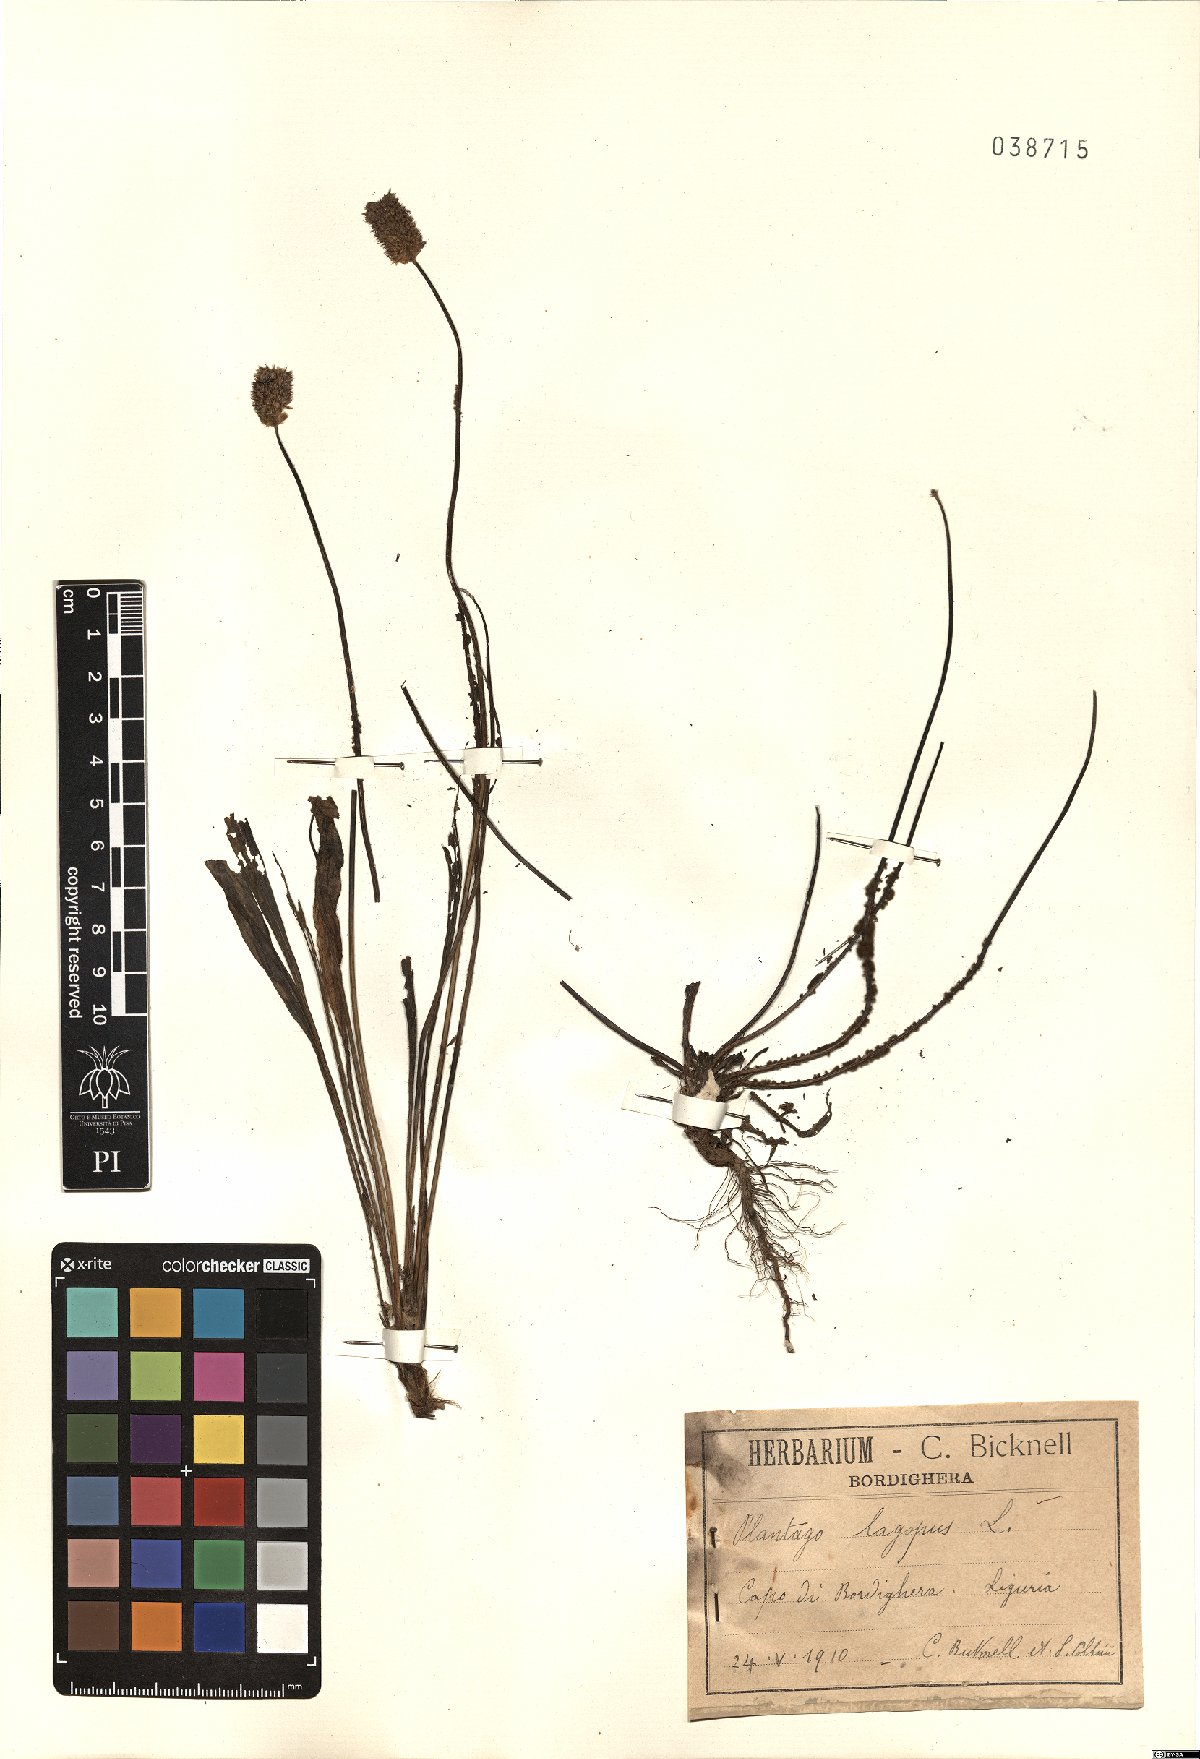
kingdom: Plantae
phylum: Tracheophyta
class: Magnoliopsida
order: Lamiales
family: Plantaginaceae
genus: Plantago
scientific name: Plantago lagopus
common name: Hare-foot plantain
